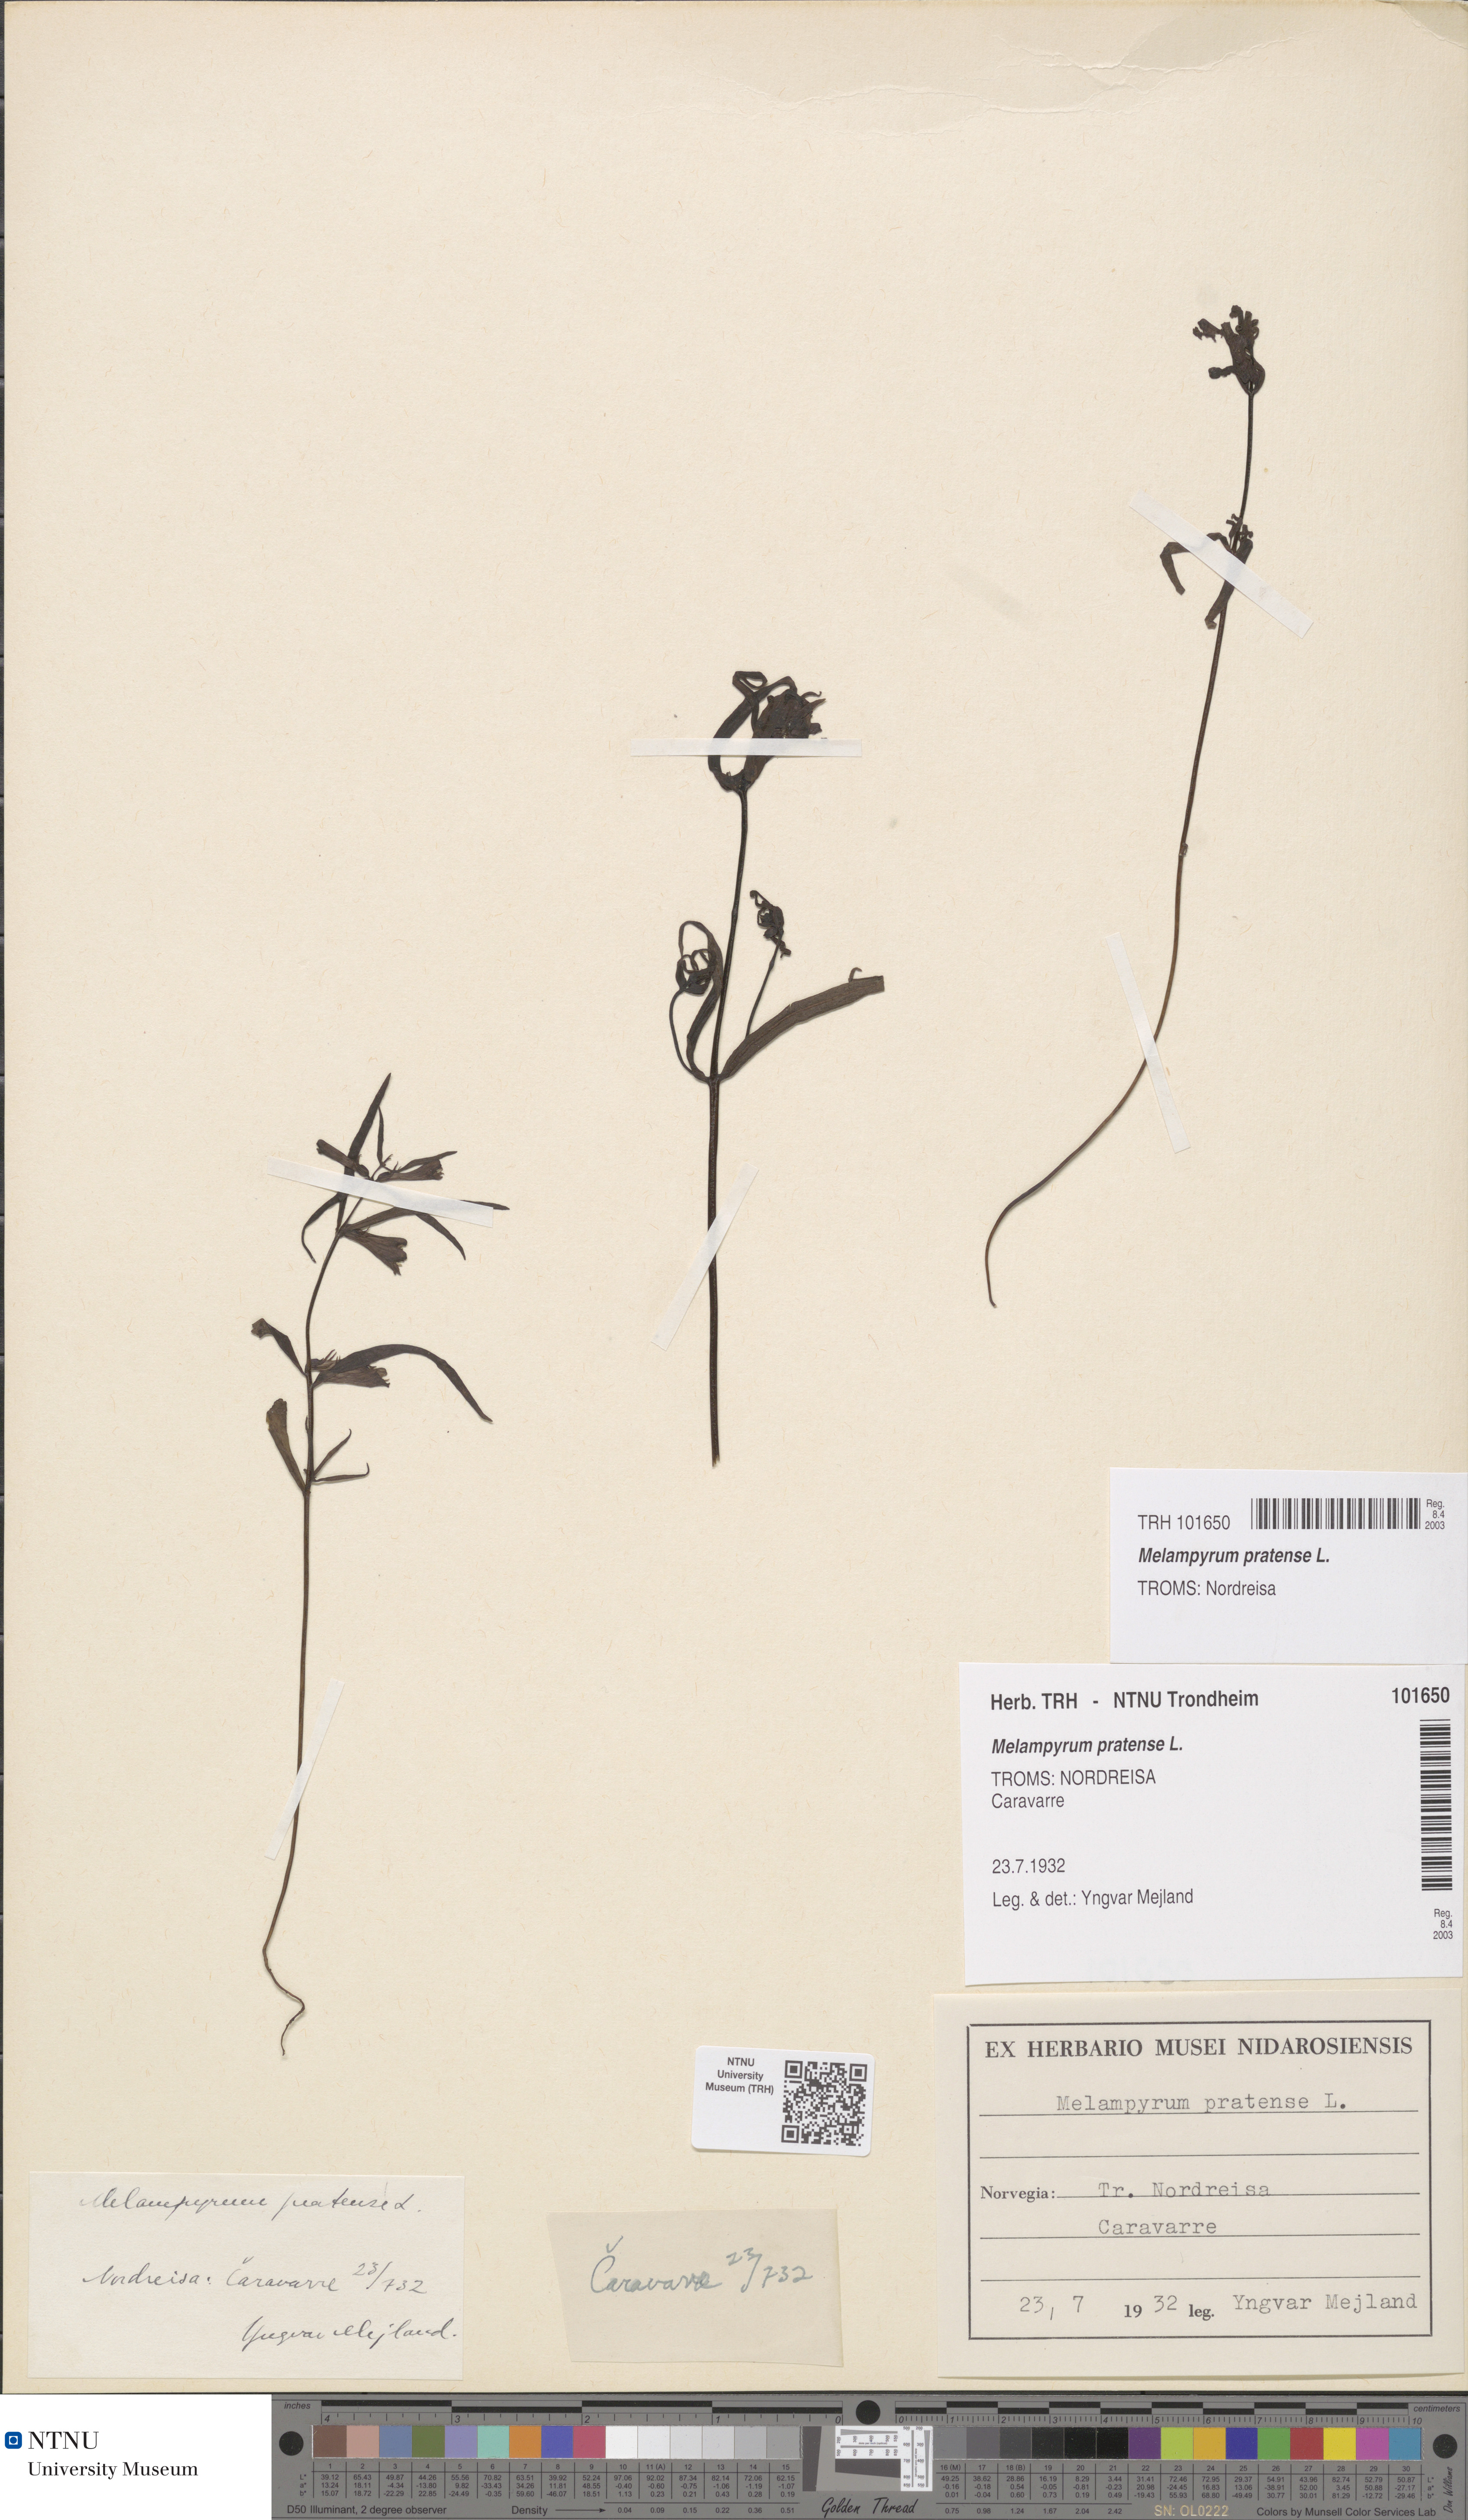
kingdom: Plantae
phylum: Tracheophyta
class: Magnoliopsida
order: Lamiales
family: Orobanchaceae
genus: Melampyrum
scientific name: Melampyrum pratense
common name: Common cow-wheat
